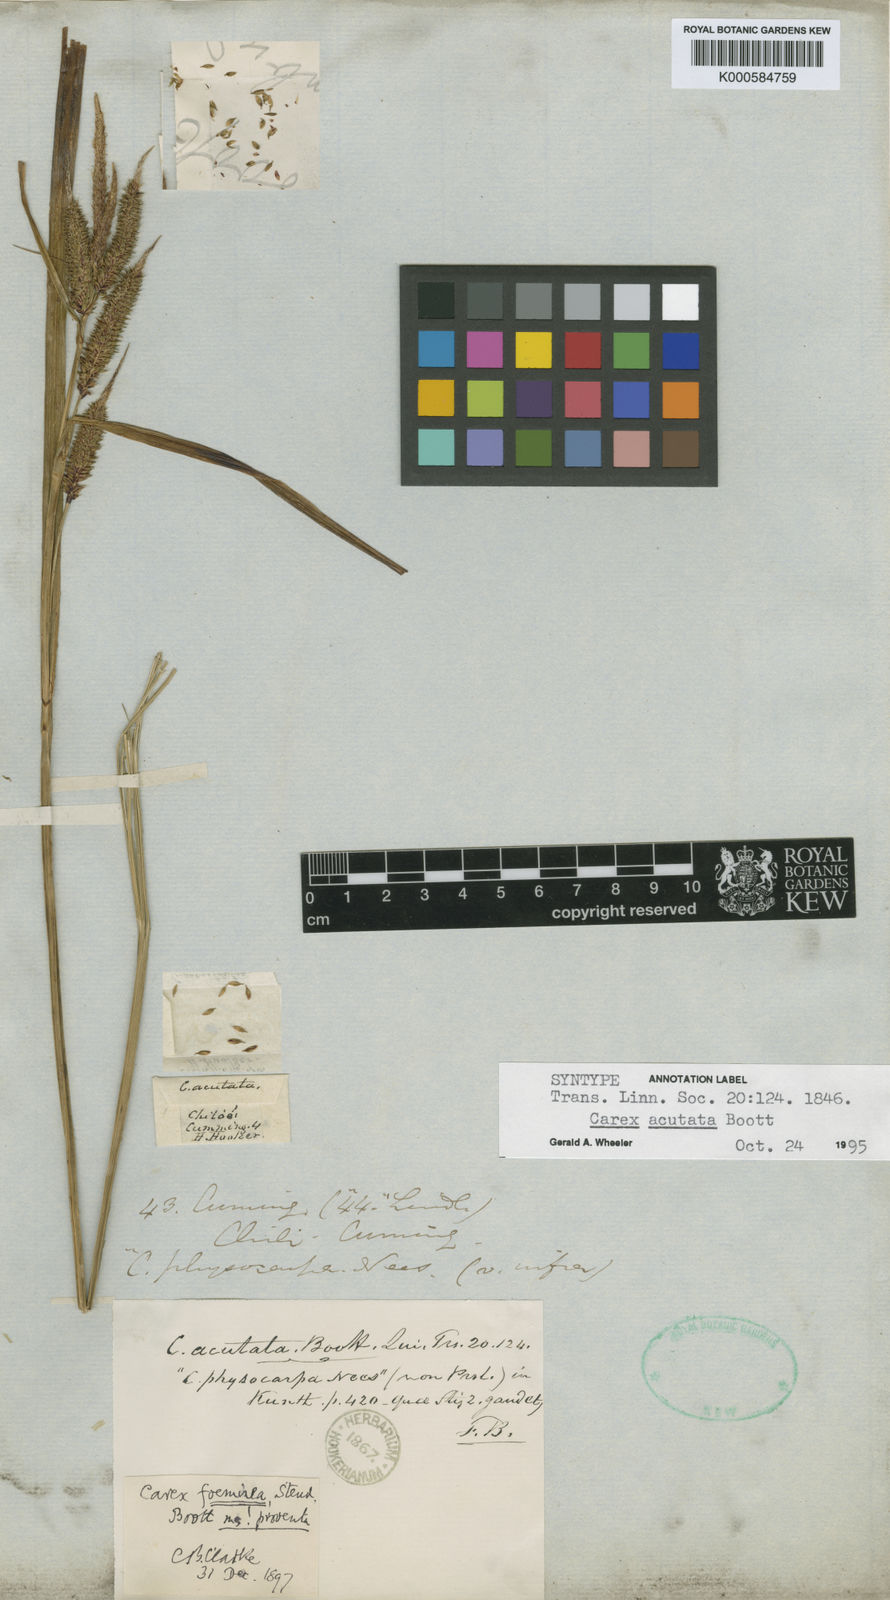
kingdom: Plantae
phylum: Tracheophyta
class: Liliopsida
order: Poales
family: Cyperaceae
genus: Carex
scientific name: Carex acutata
